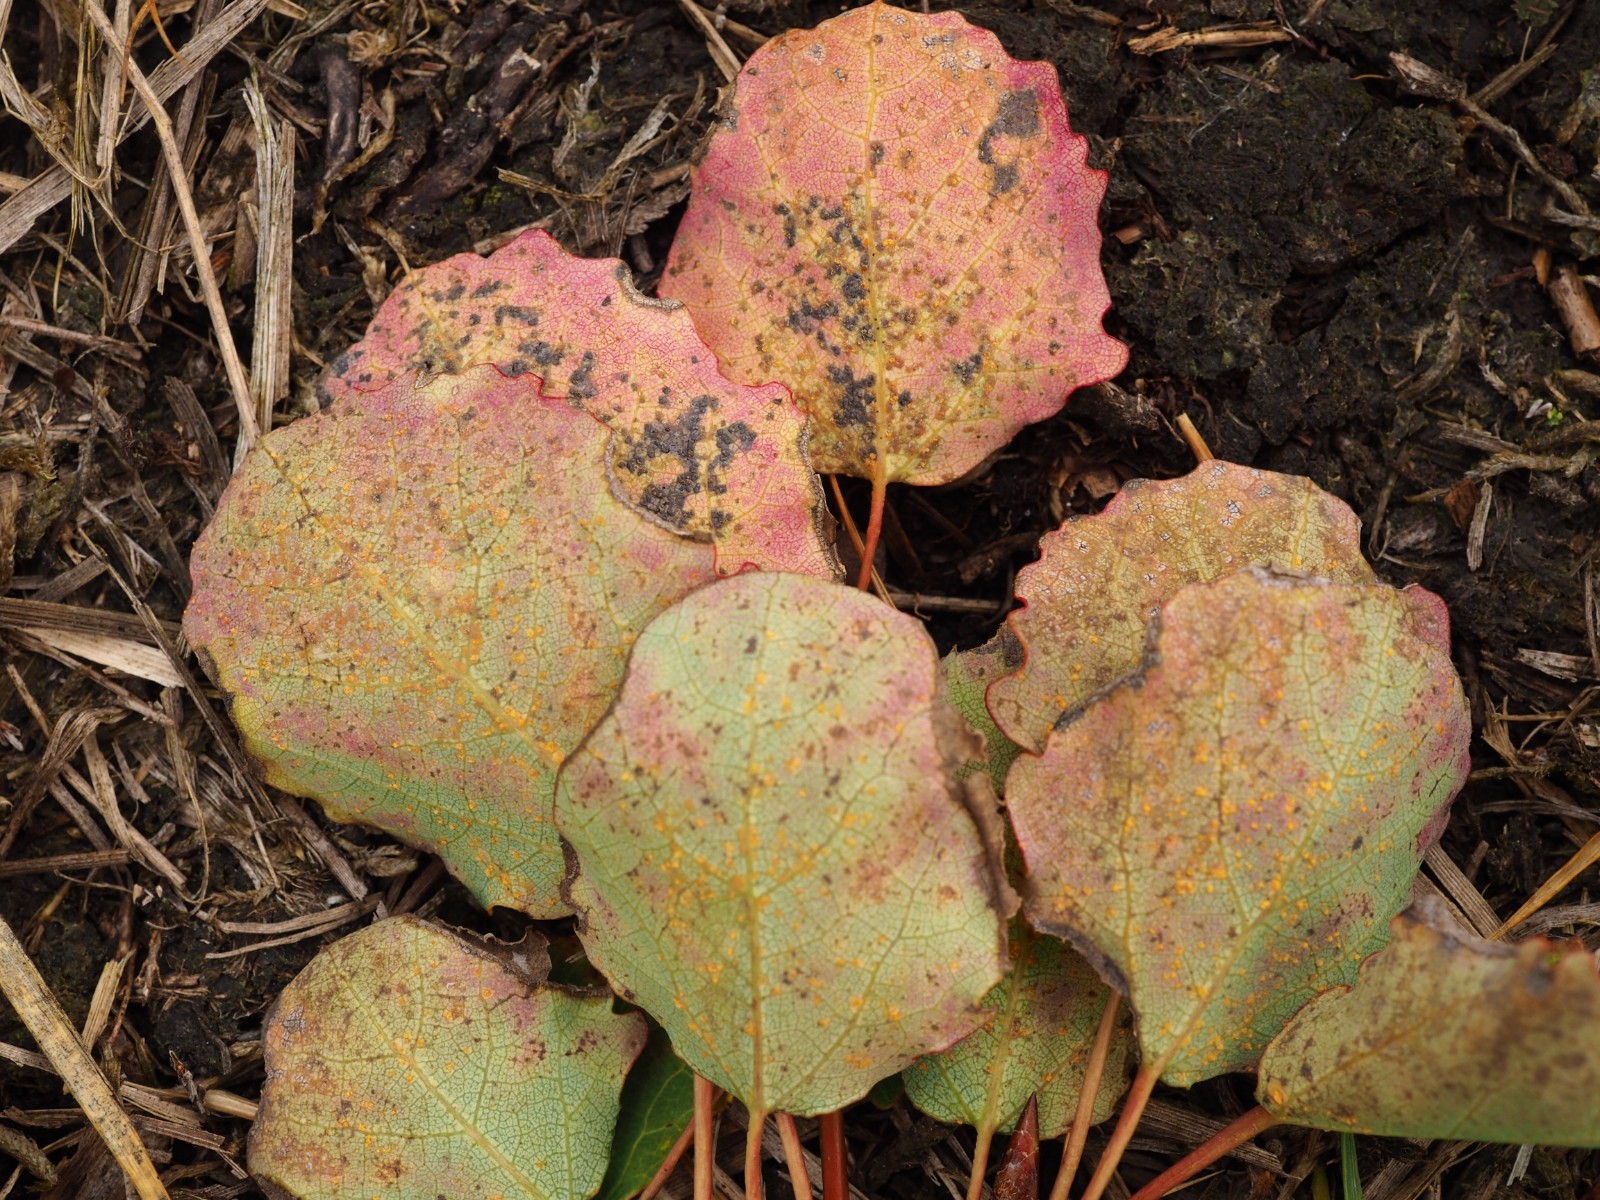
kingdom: Fungi
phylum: Basidiomycota
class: Pucciniomycetes
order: Pucciniales
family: Melampsoraceae
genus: Melampsora
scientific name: Melampsora populnea
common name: poppel-skorperust
